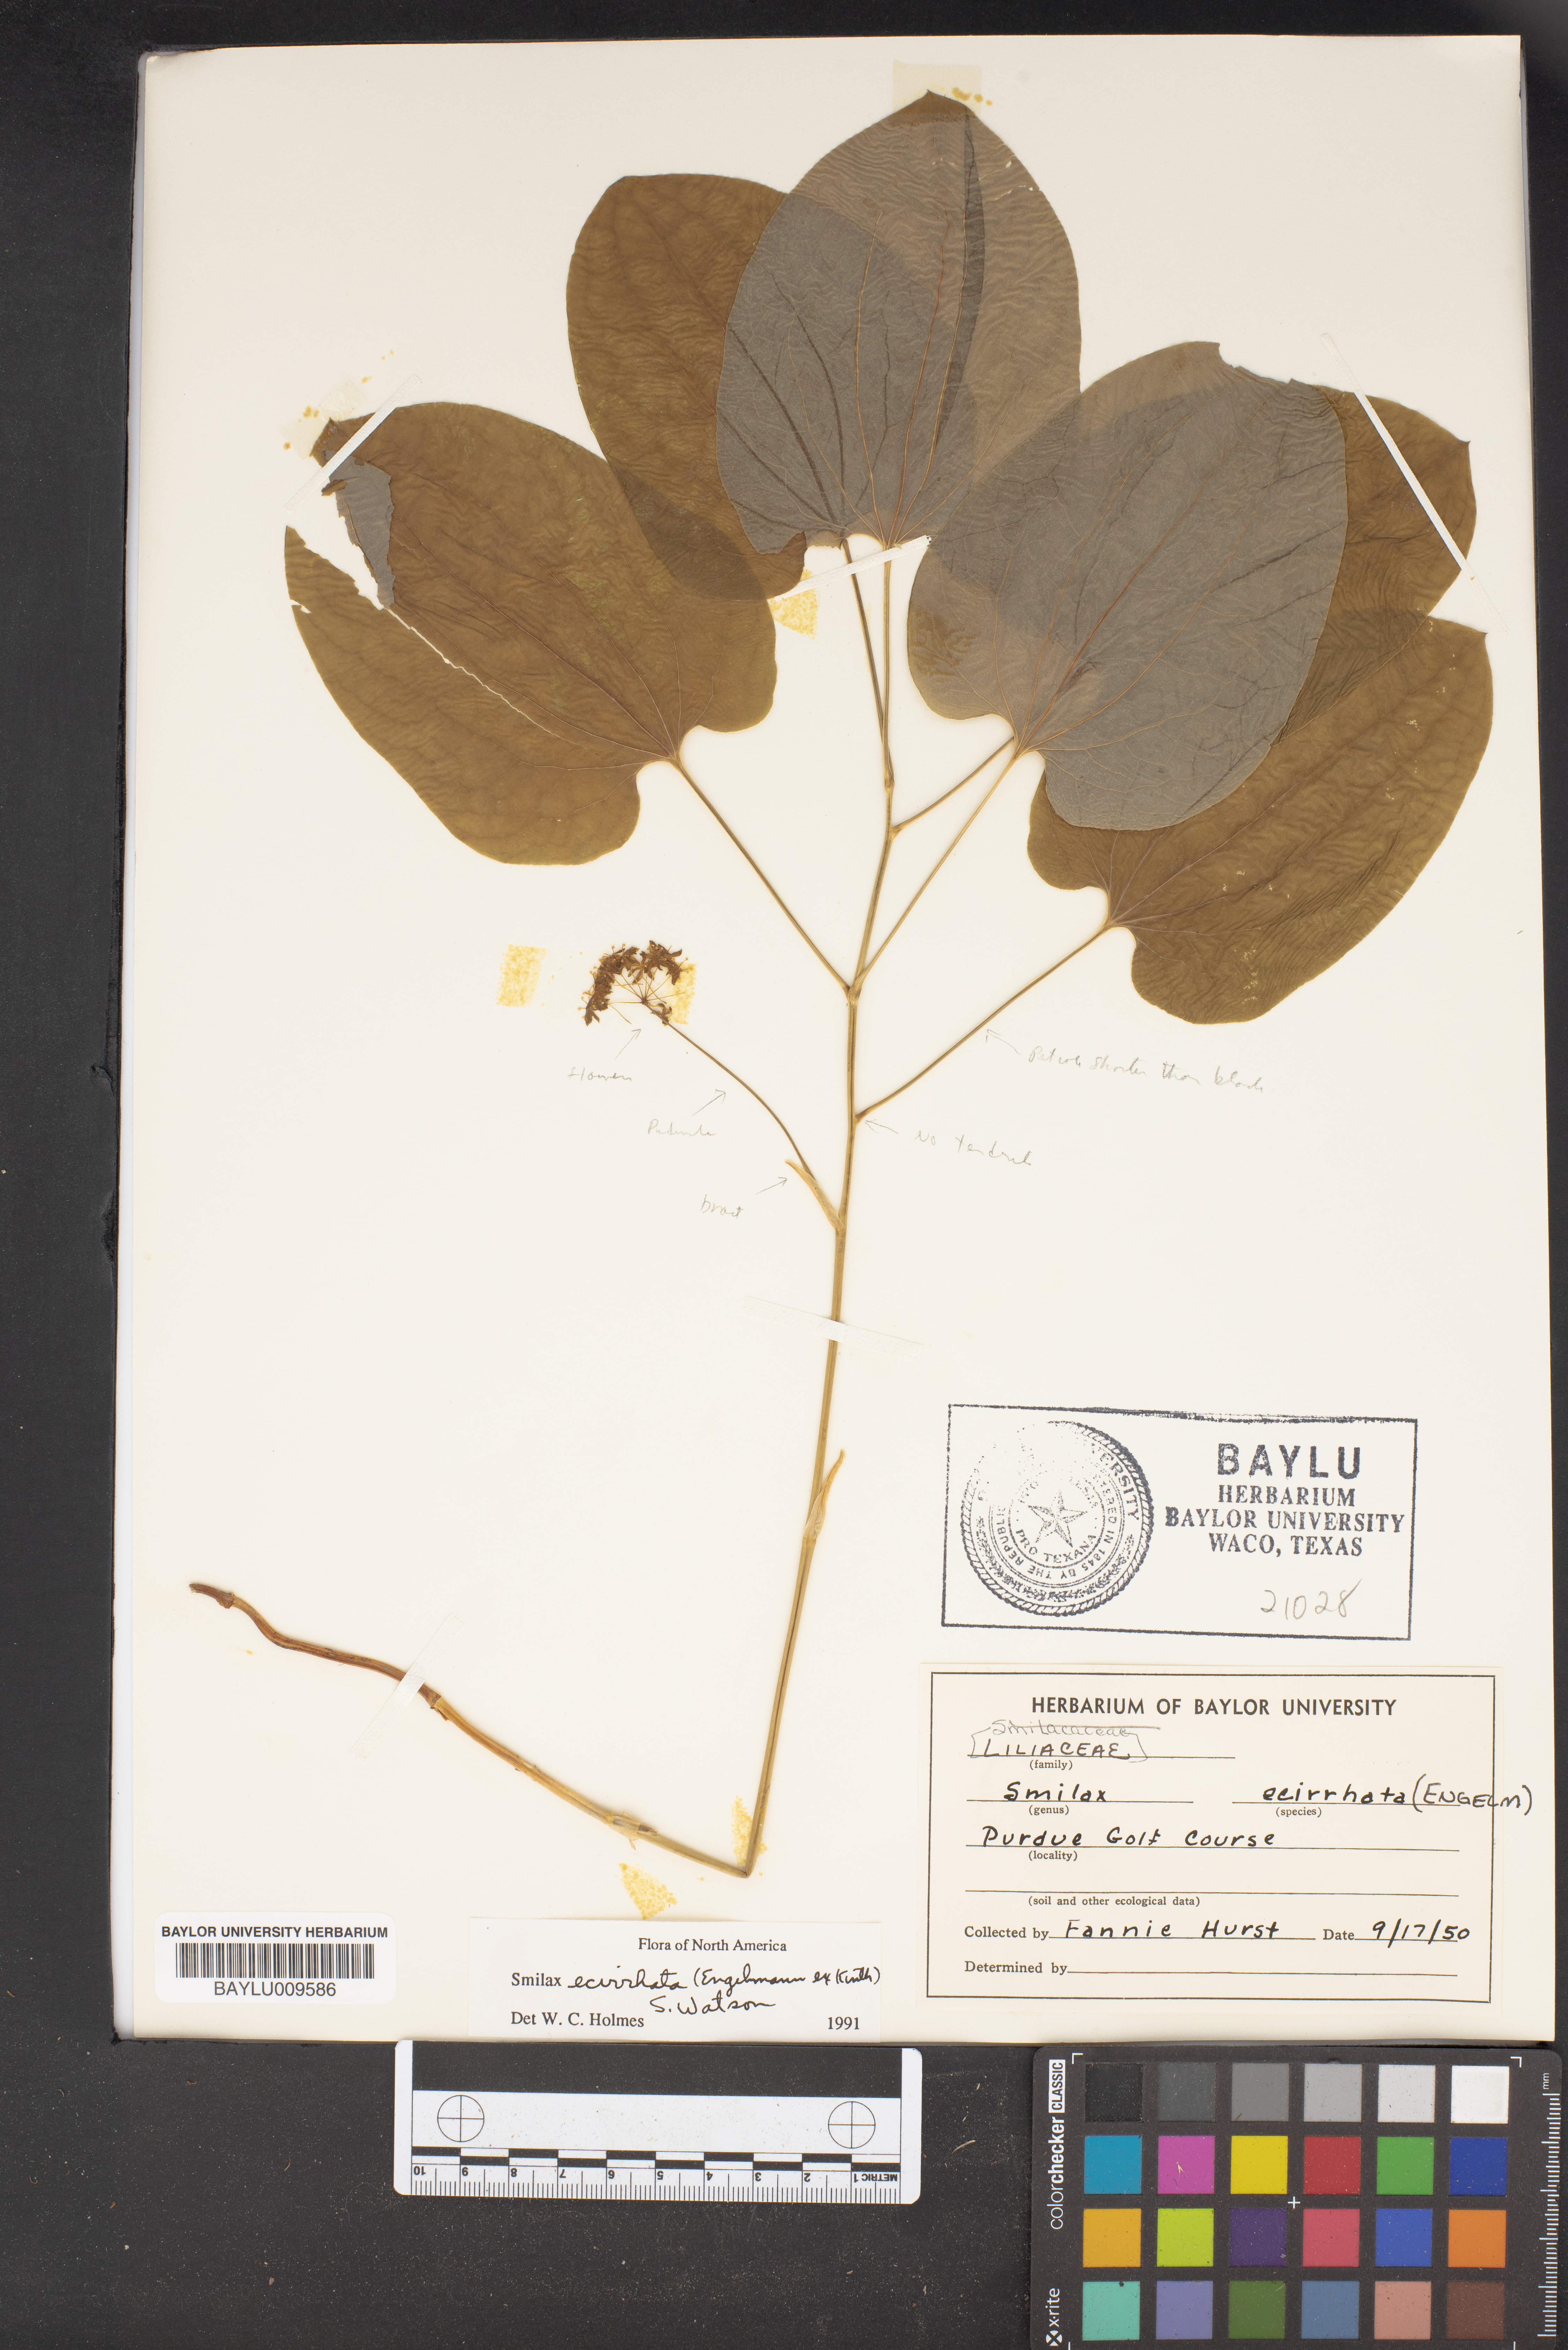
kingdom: Plantae
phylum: Tracheophyta
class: Liliopsida
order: Liliales
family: Smilacaceae
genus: Smilax
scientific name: Smilax ecirrhata
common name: Upright carrionflower
